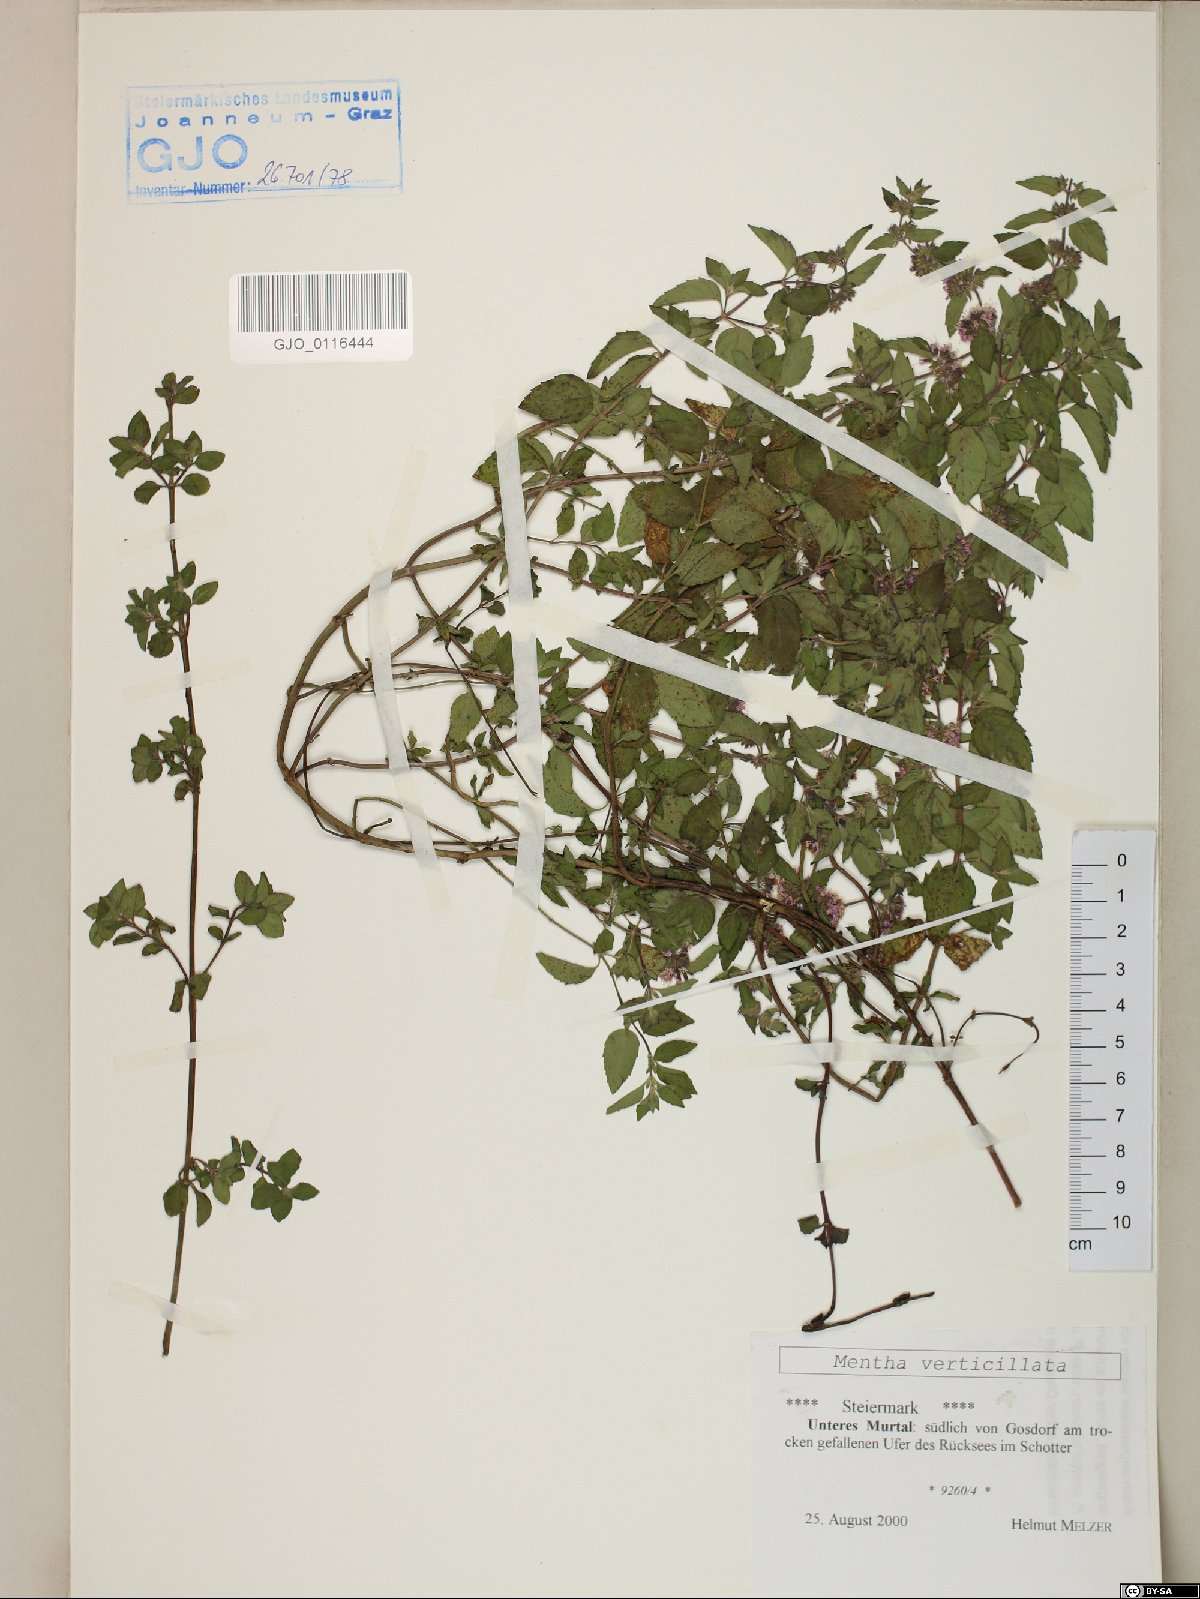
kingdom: Plantae
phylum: Tracheophyta
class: Magnoliopsida
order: Lamiales
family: Lamiaceae
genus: Mentha
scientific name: Mentha verticillata
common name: Mint
